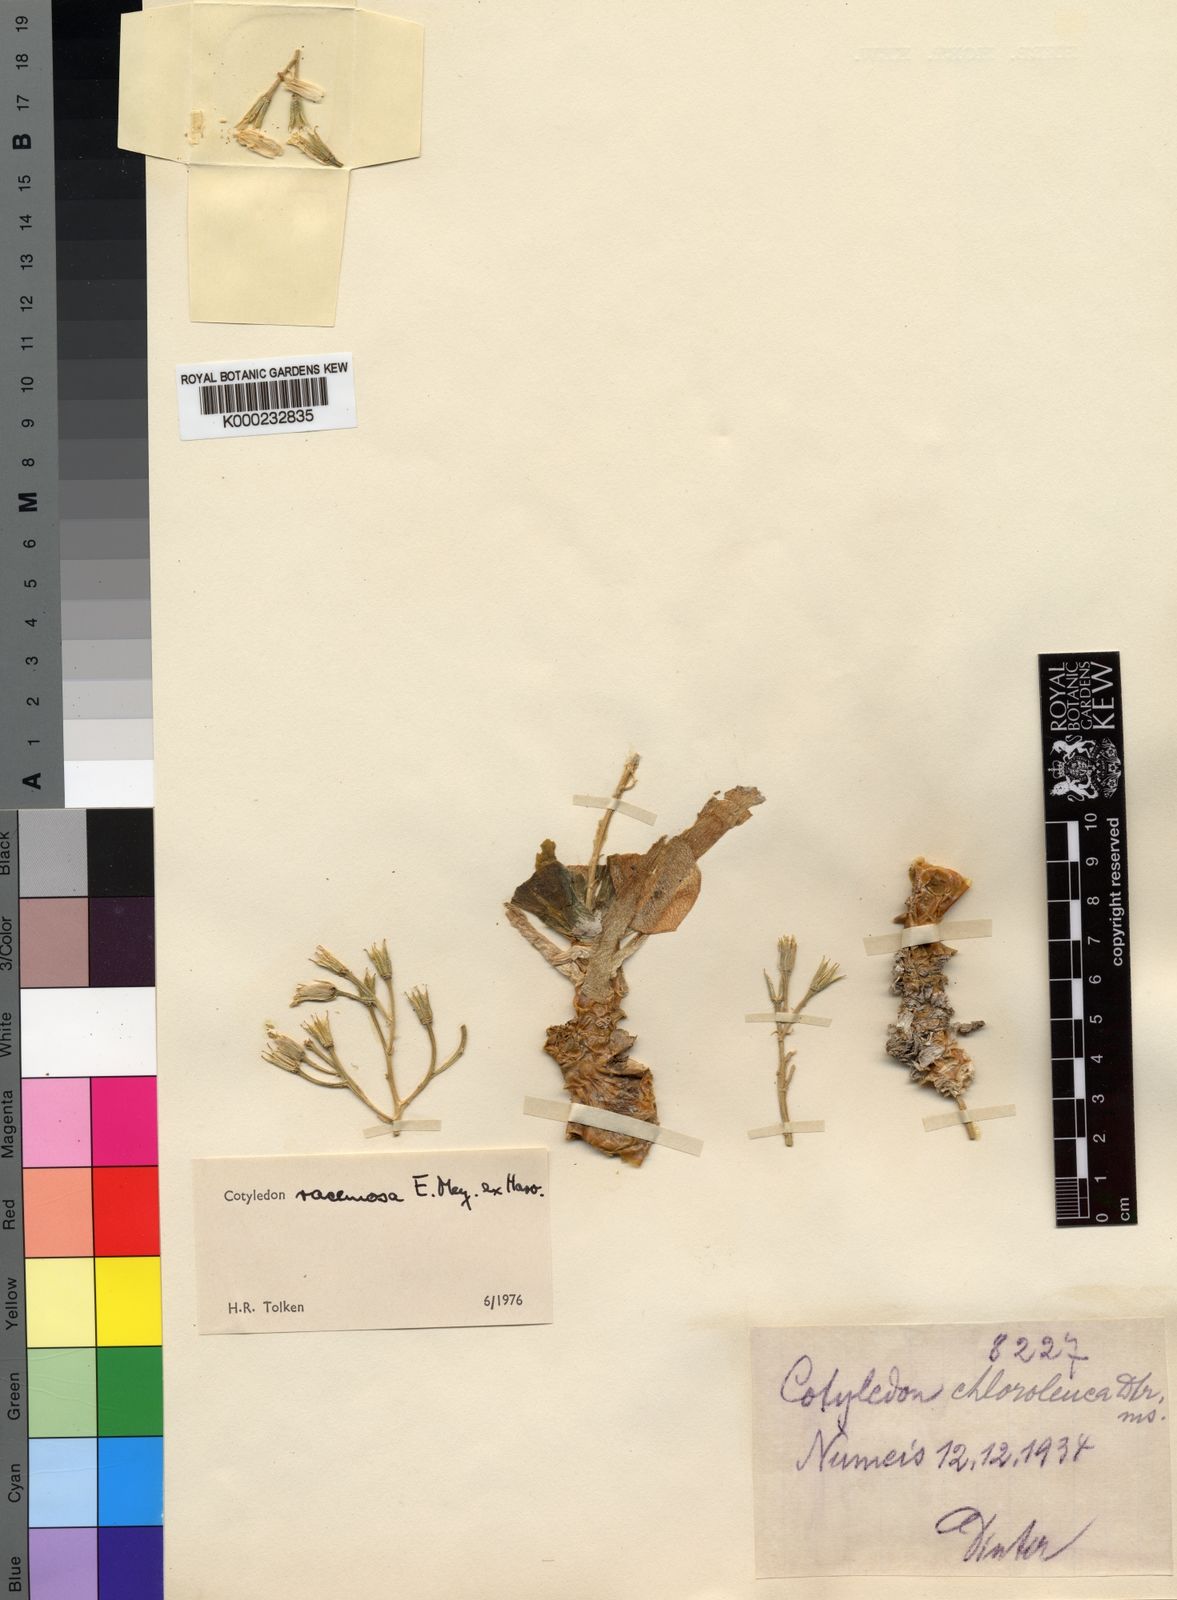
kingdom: Plantae
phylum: Tracheophyta
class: Magnoliopsida
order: Saxifragales
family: Crassulaceae
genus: Tylecodon
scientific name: Tylecodon racemosus
